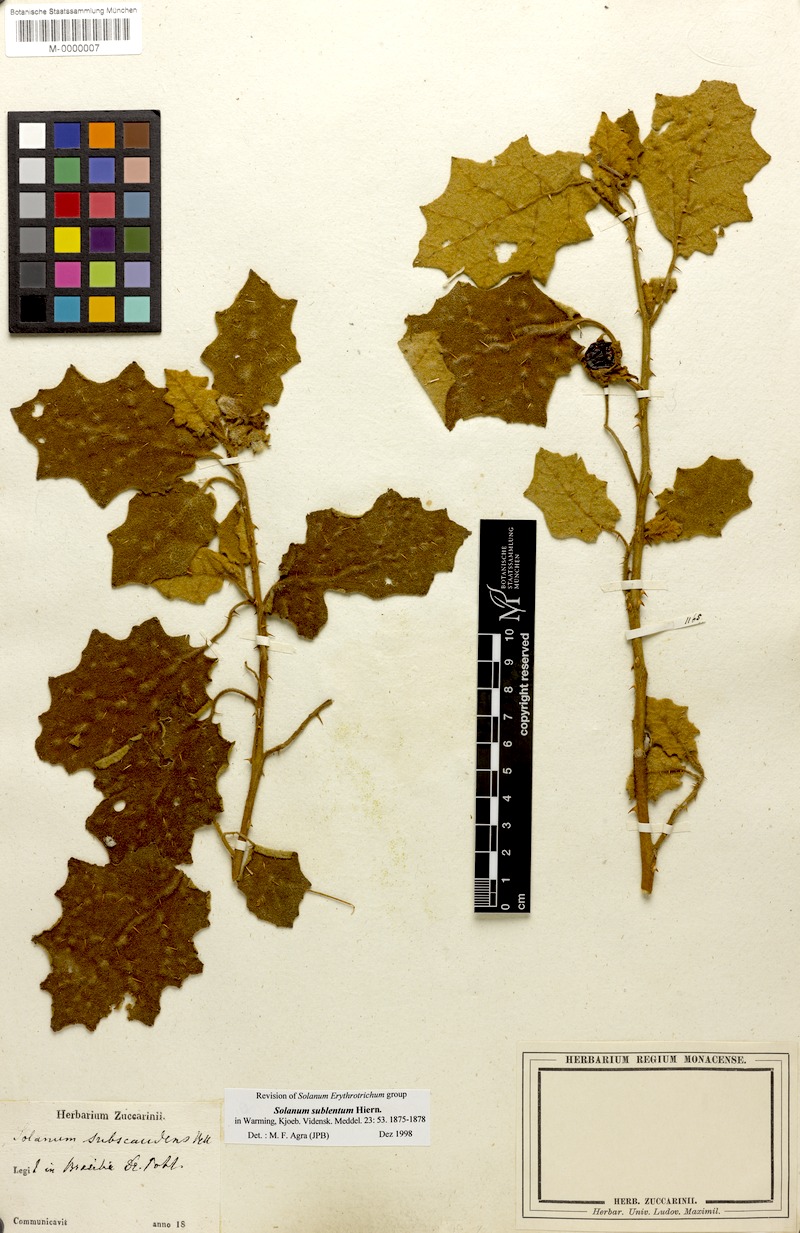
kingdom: Plantae
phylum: Tracheophyta
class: Magnoliopsida
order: Solanales
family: Solanaceae
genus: Solanum
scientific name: Solanum sublentum
